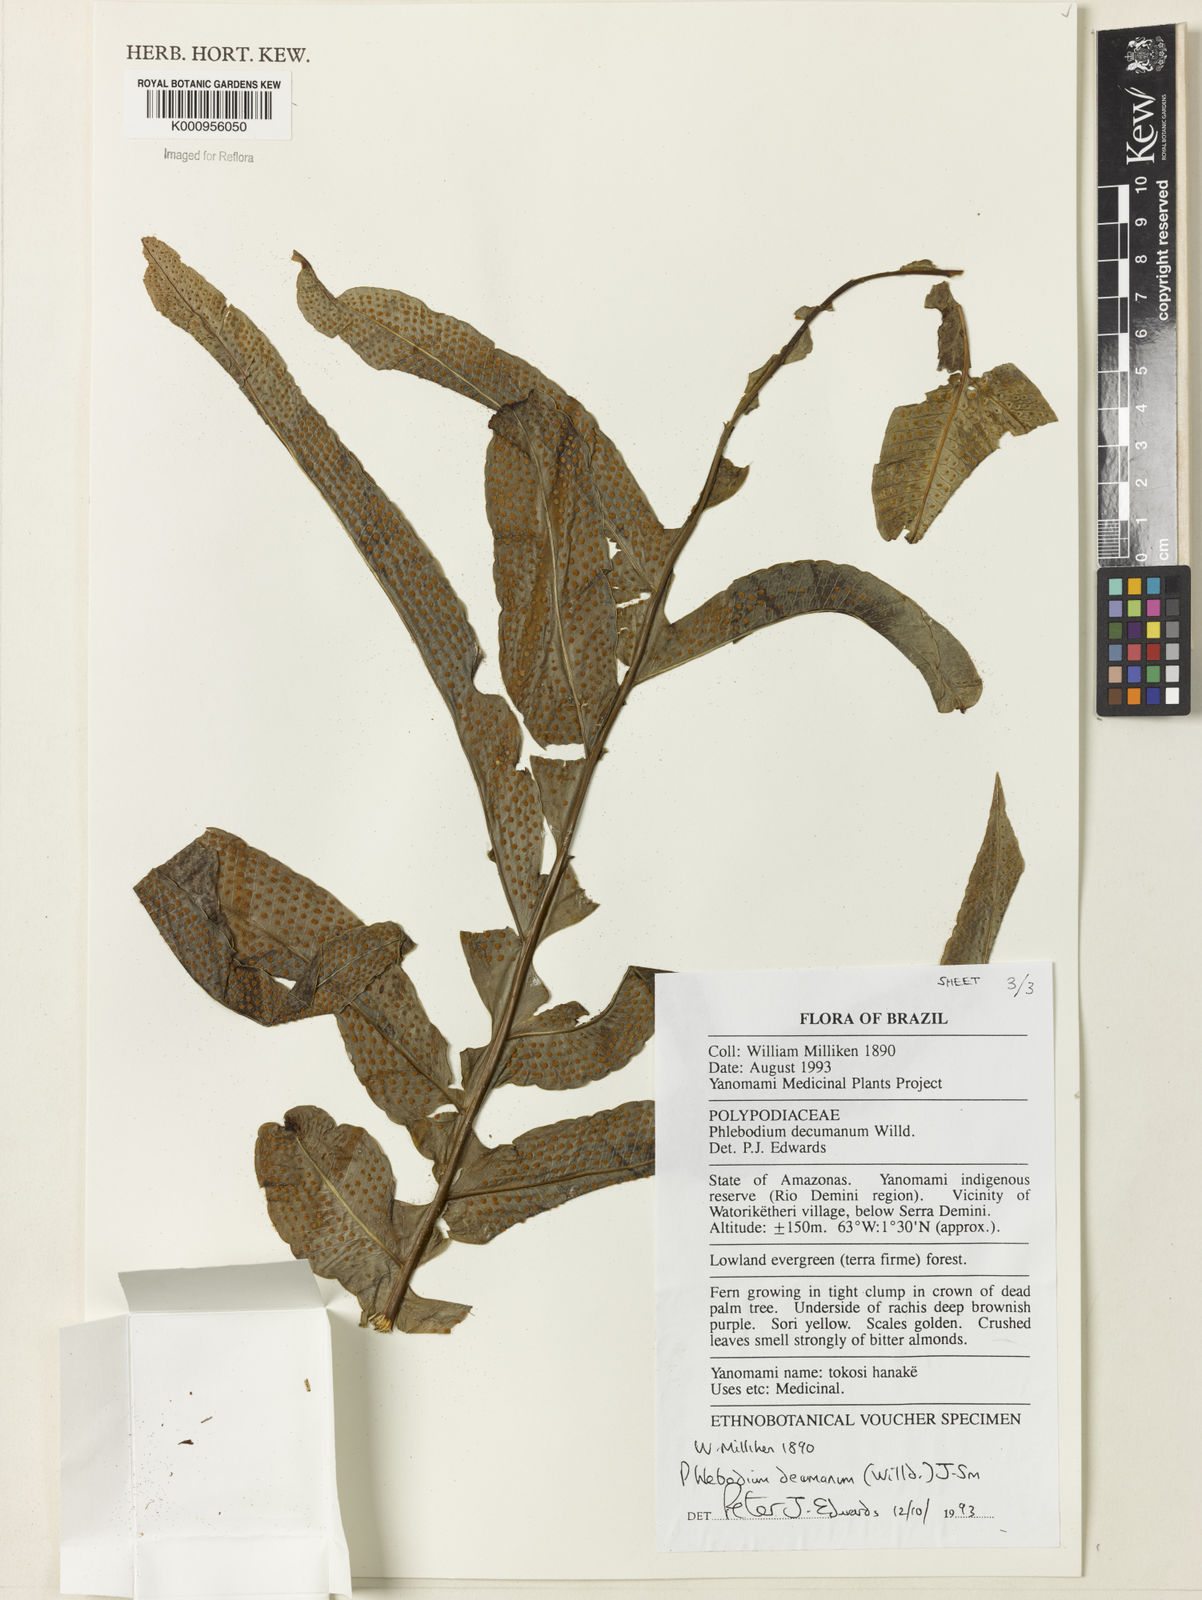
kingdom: Plantae
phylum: Tracheophyta
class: Polypodiopsida
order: Polypodiales
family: Polypodiaceae
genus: Phlebodium
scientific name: Phlebodium decumanum
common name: Golden polypod
